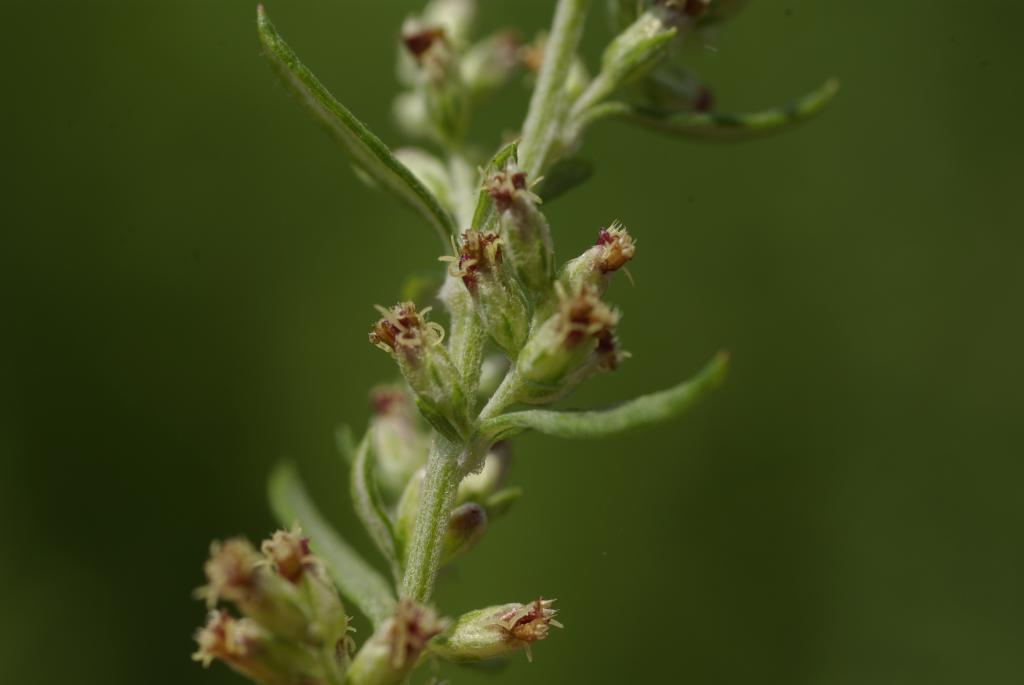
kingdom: Plantae
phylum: Tracheophyta
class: Magnoliopsida
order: Asterales
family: Asteraceae
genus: Artemisia
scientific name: Artemisia lancea
